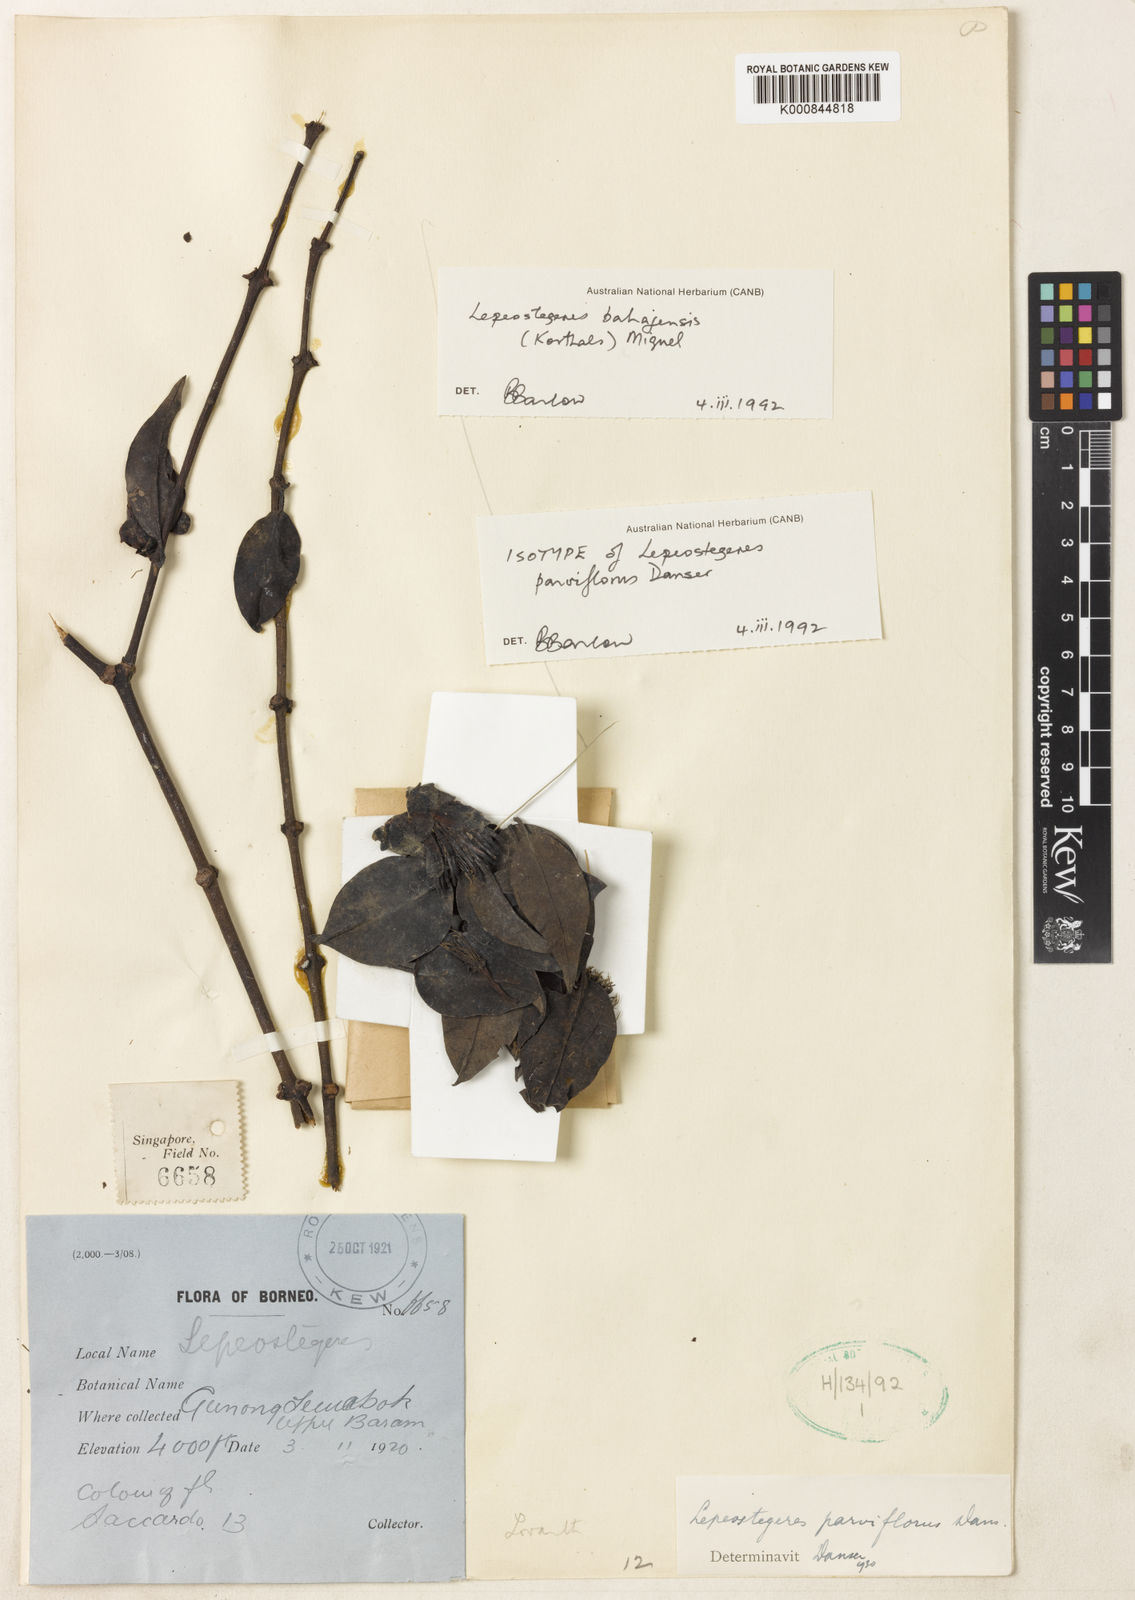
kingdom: Plantae
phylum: Tracheophyta
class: Magnoliopsida
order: Santalales
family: Loranthaceae
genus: Lepeostegeres
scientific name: Lepeostegeres bahajensis
